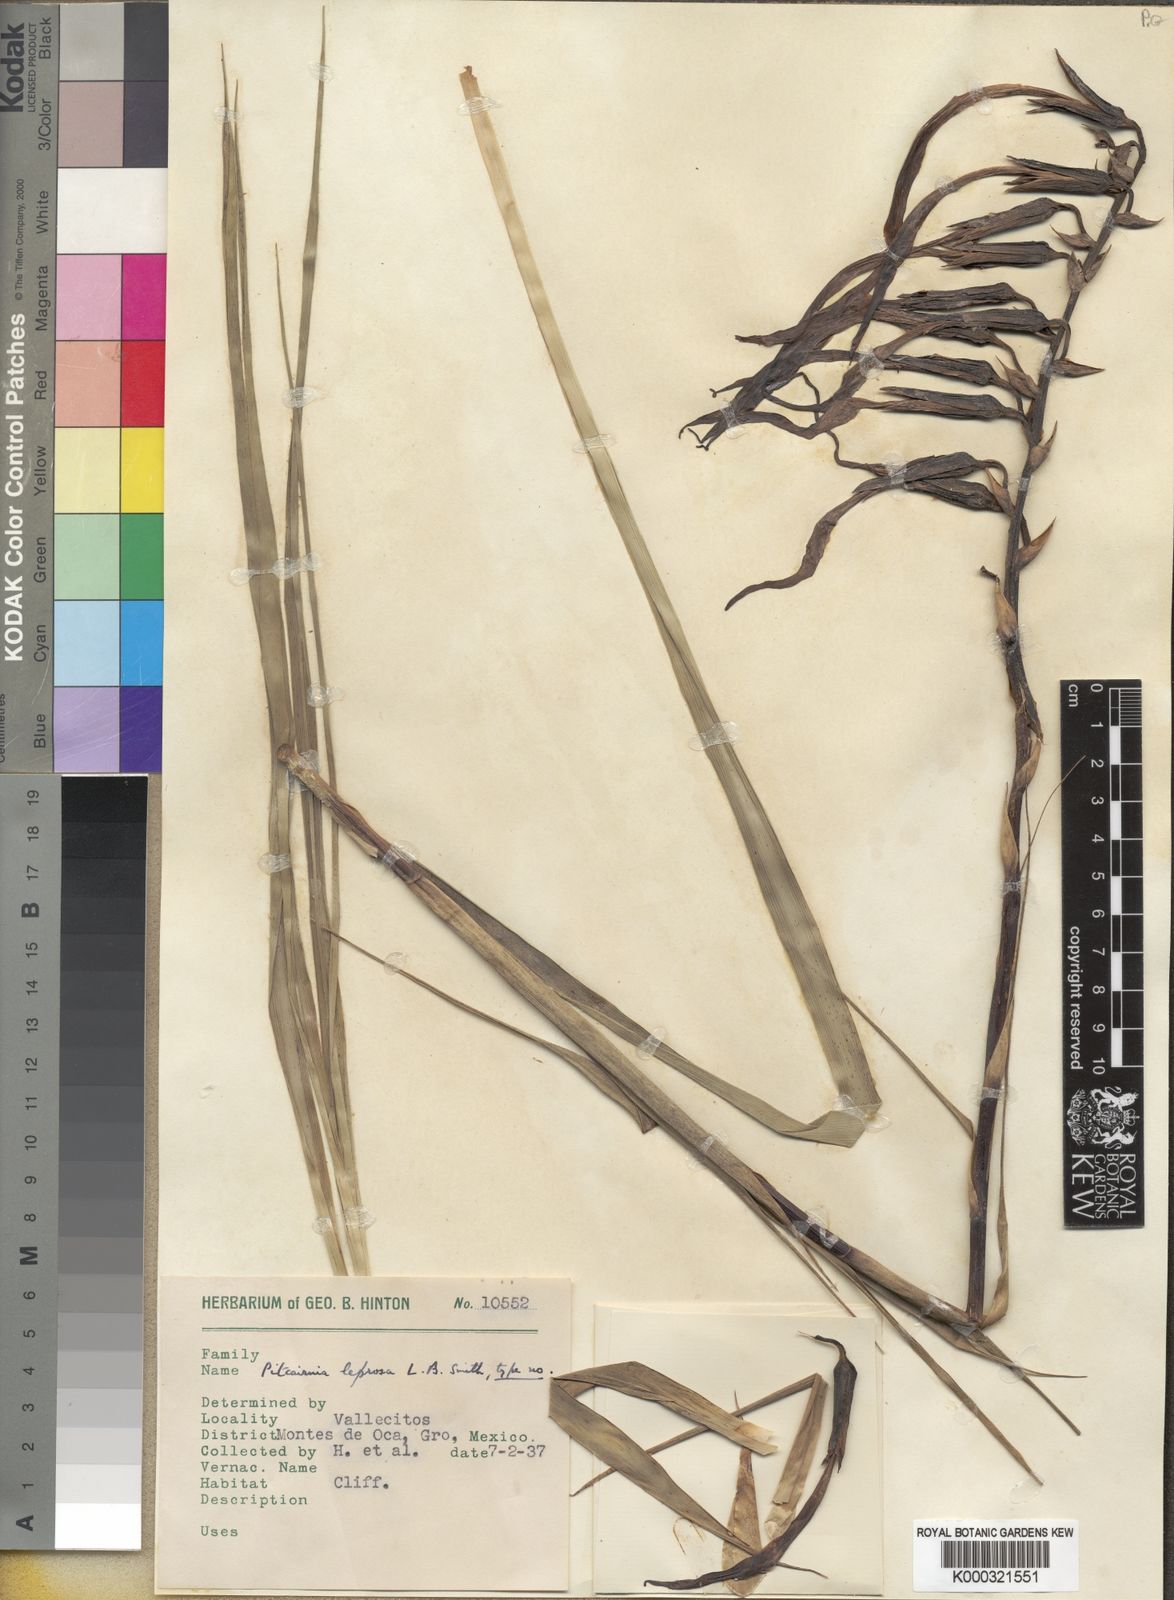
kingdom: Plantae
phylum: Tracheophyta
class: Liliopsida
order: Poales
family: Bromeliaceae
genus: Pitcairnia
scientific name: Pitcairnia leprosa
